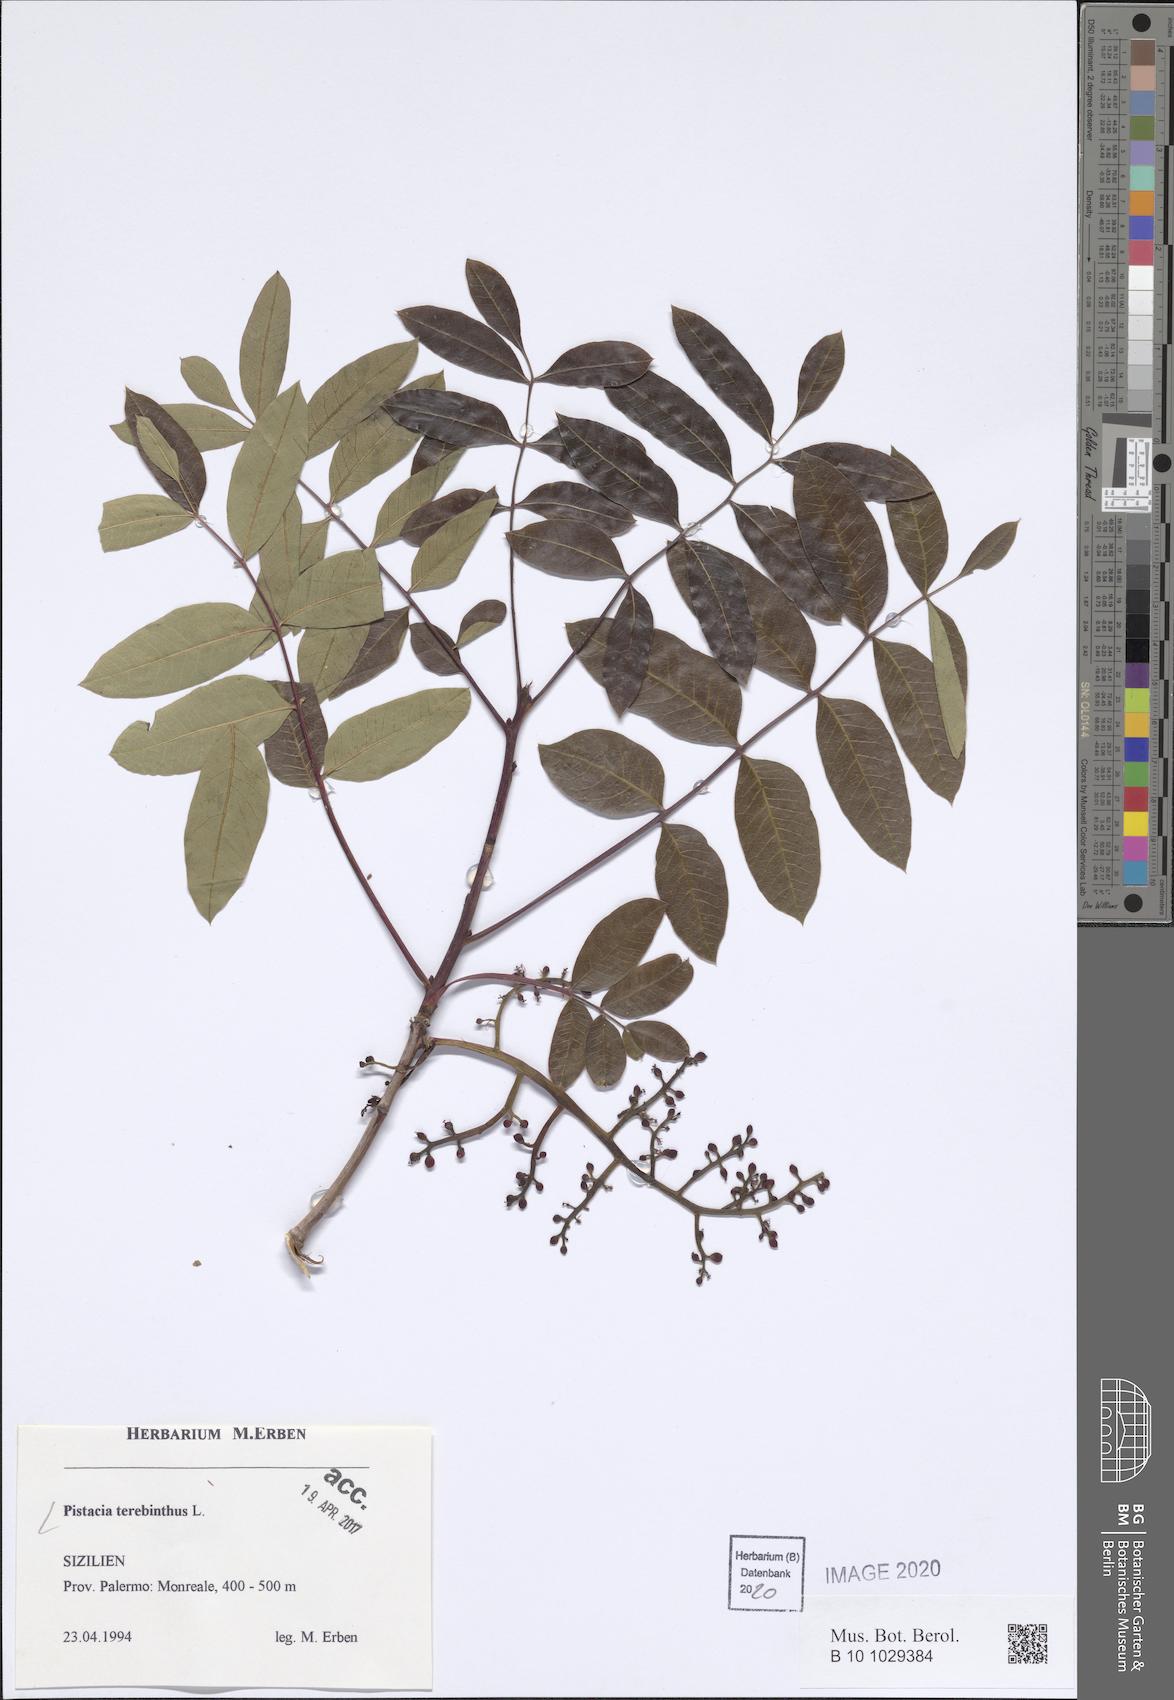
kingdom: Plantae
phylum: Tracheophyta
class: Magnoliopsida
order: Sapindales
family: Anacardiaceae
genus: Pistacia
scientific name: Pistacia terebinthus
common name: Terebinth
